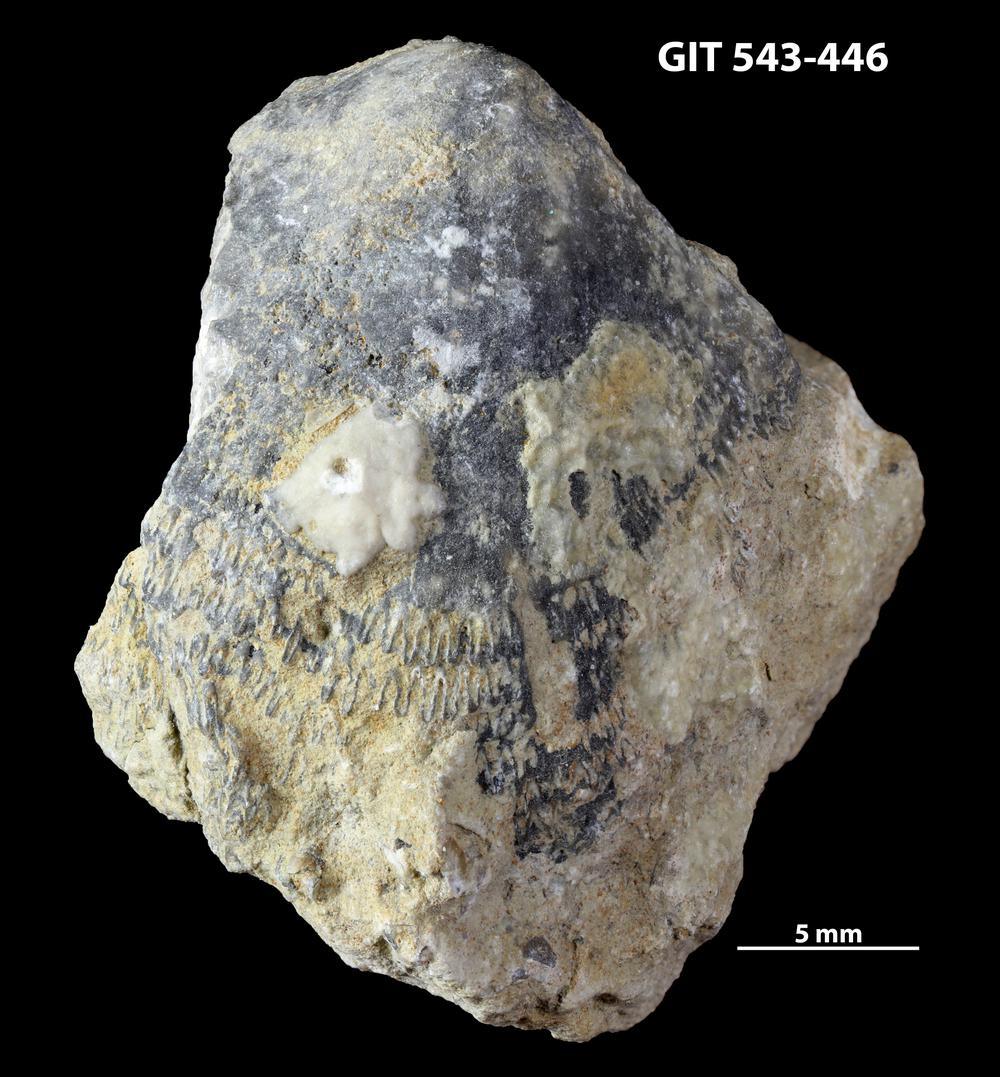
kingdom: Animalia
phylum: Brachiopoda
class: Rhynchonellata
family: Clitambonitidae
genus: Clitambonites
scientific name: Clitambonites
